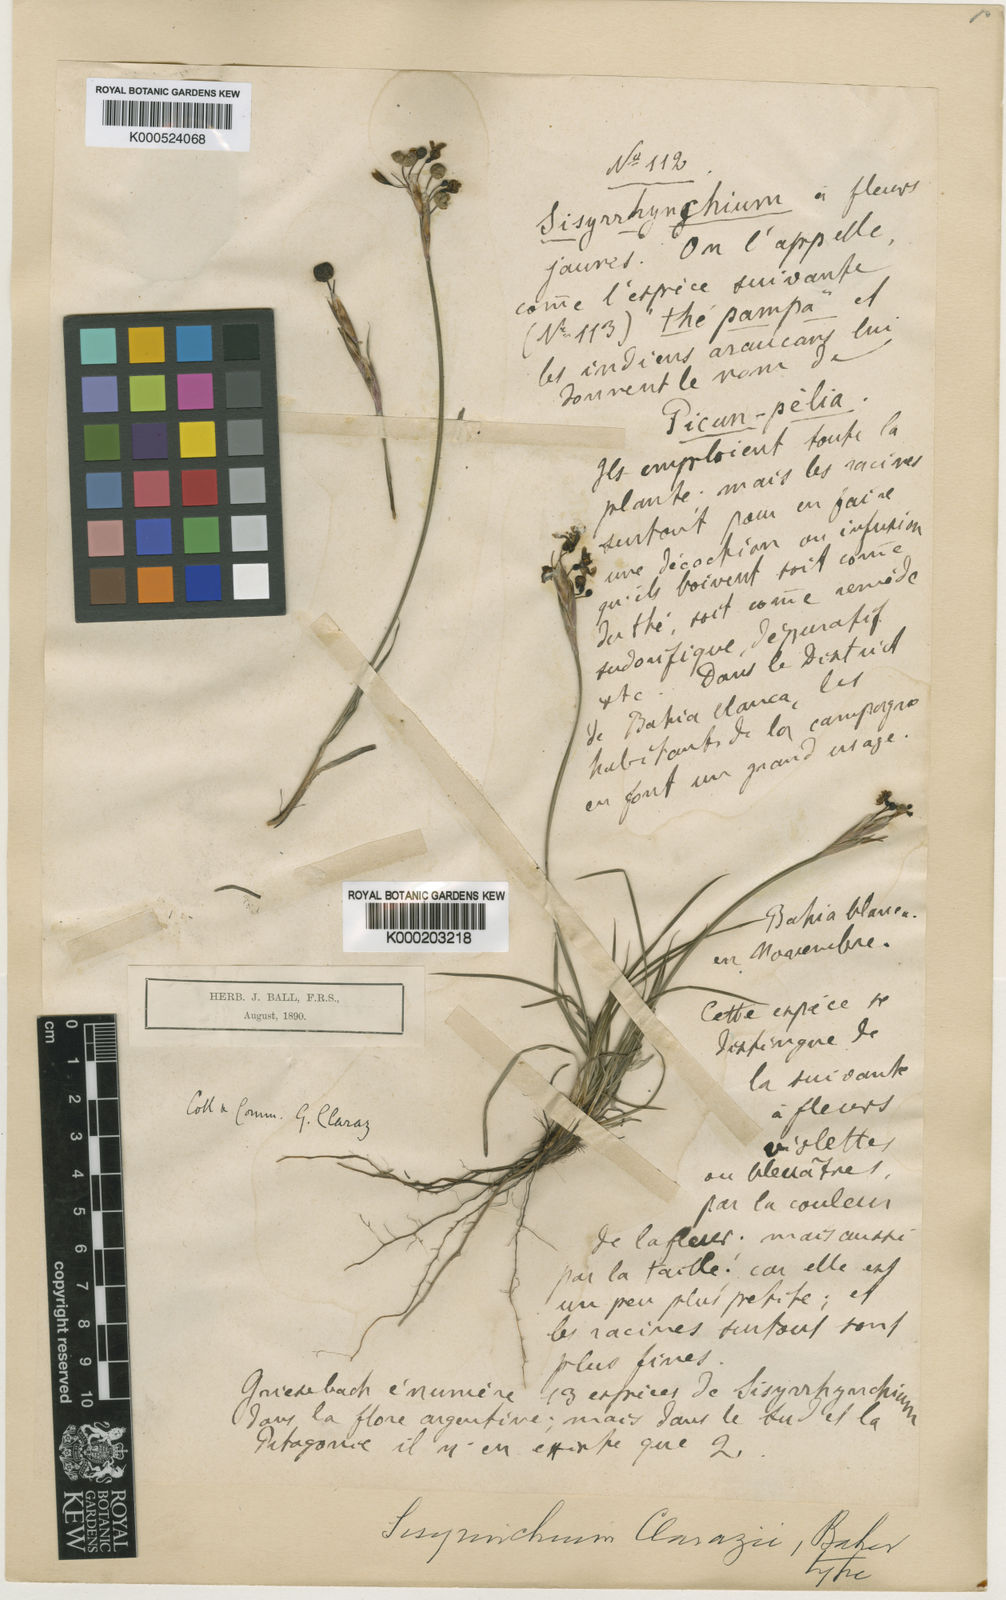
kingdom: Plantae
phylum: Tracheophyta
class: Liliopsida
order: Asparagales
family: Iridaceae
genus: Sisyrinchium
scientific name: Sisyrinchium avenaceum
